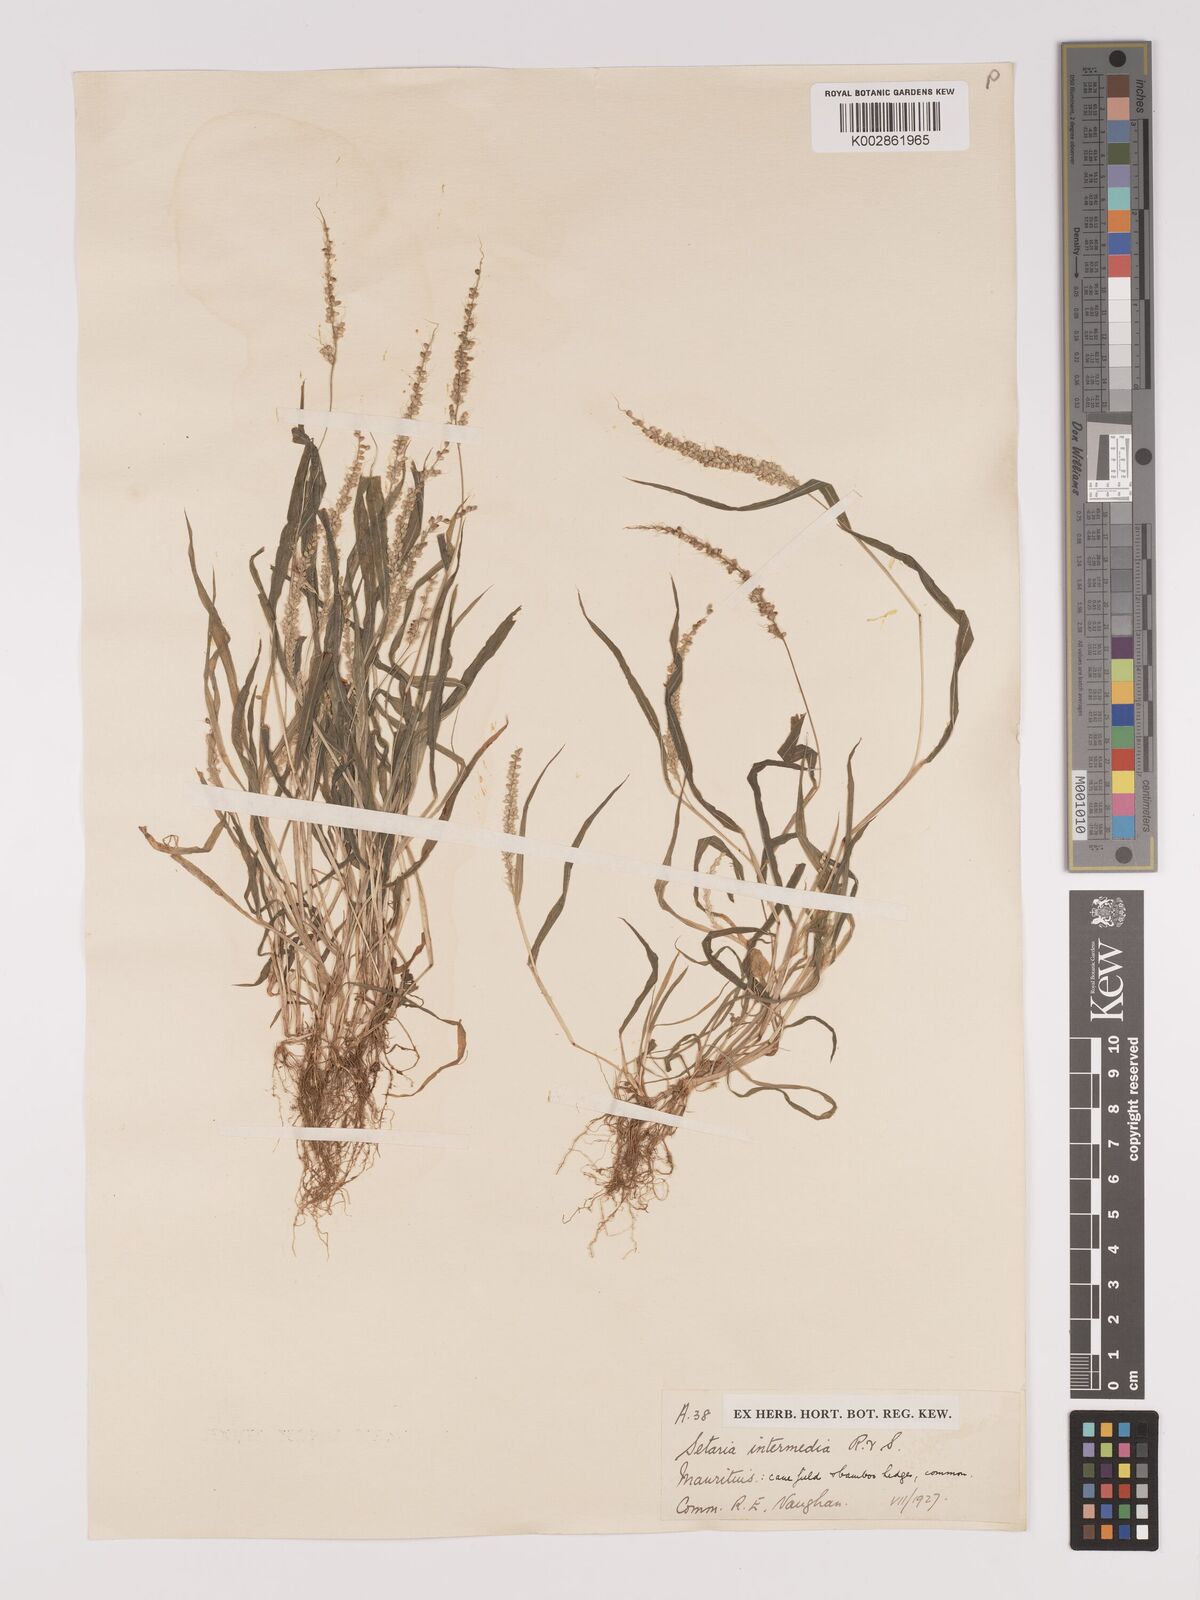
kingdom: Plantae
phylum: Tracheophyta
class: Liliopsida
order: Poales
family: Poaceae
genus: Setaria
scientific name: Setaria intermedia
